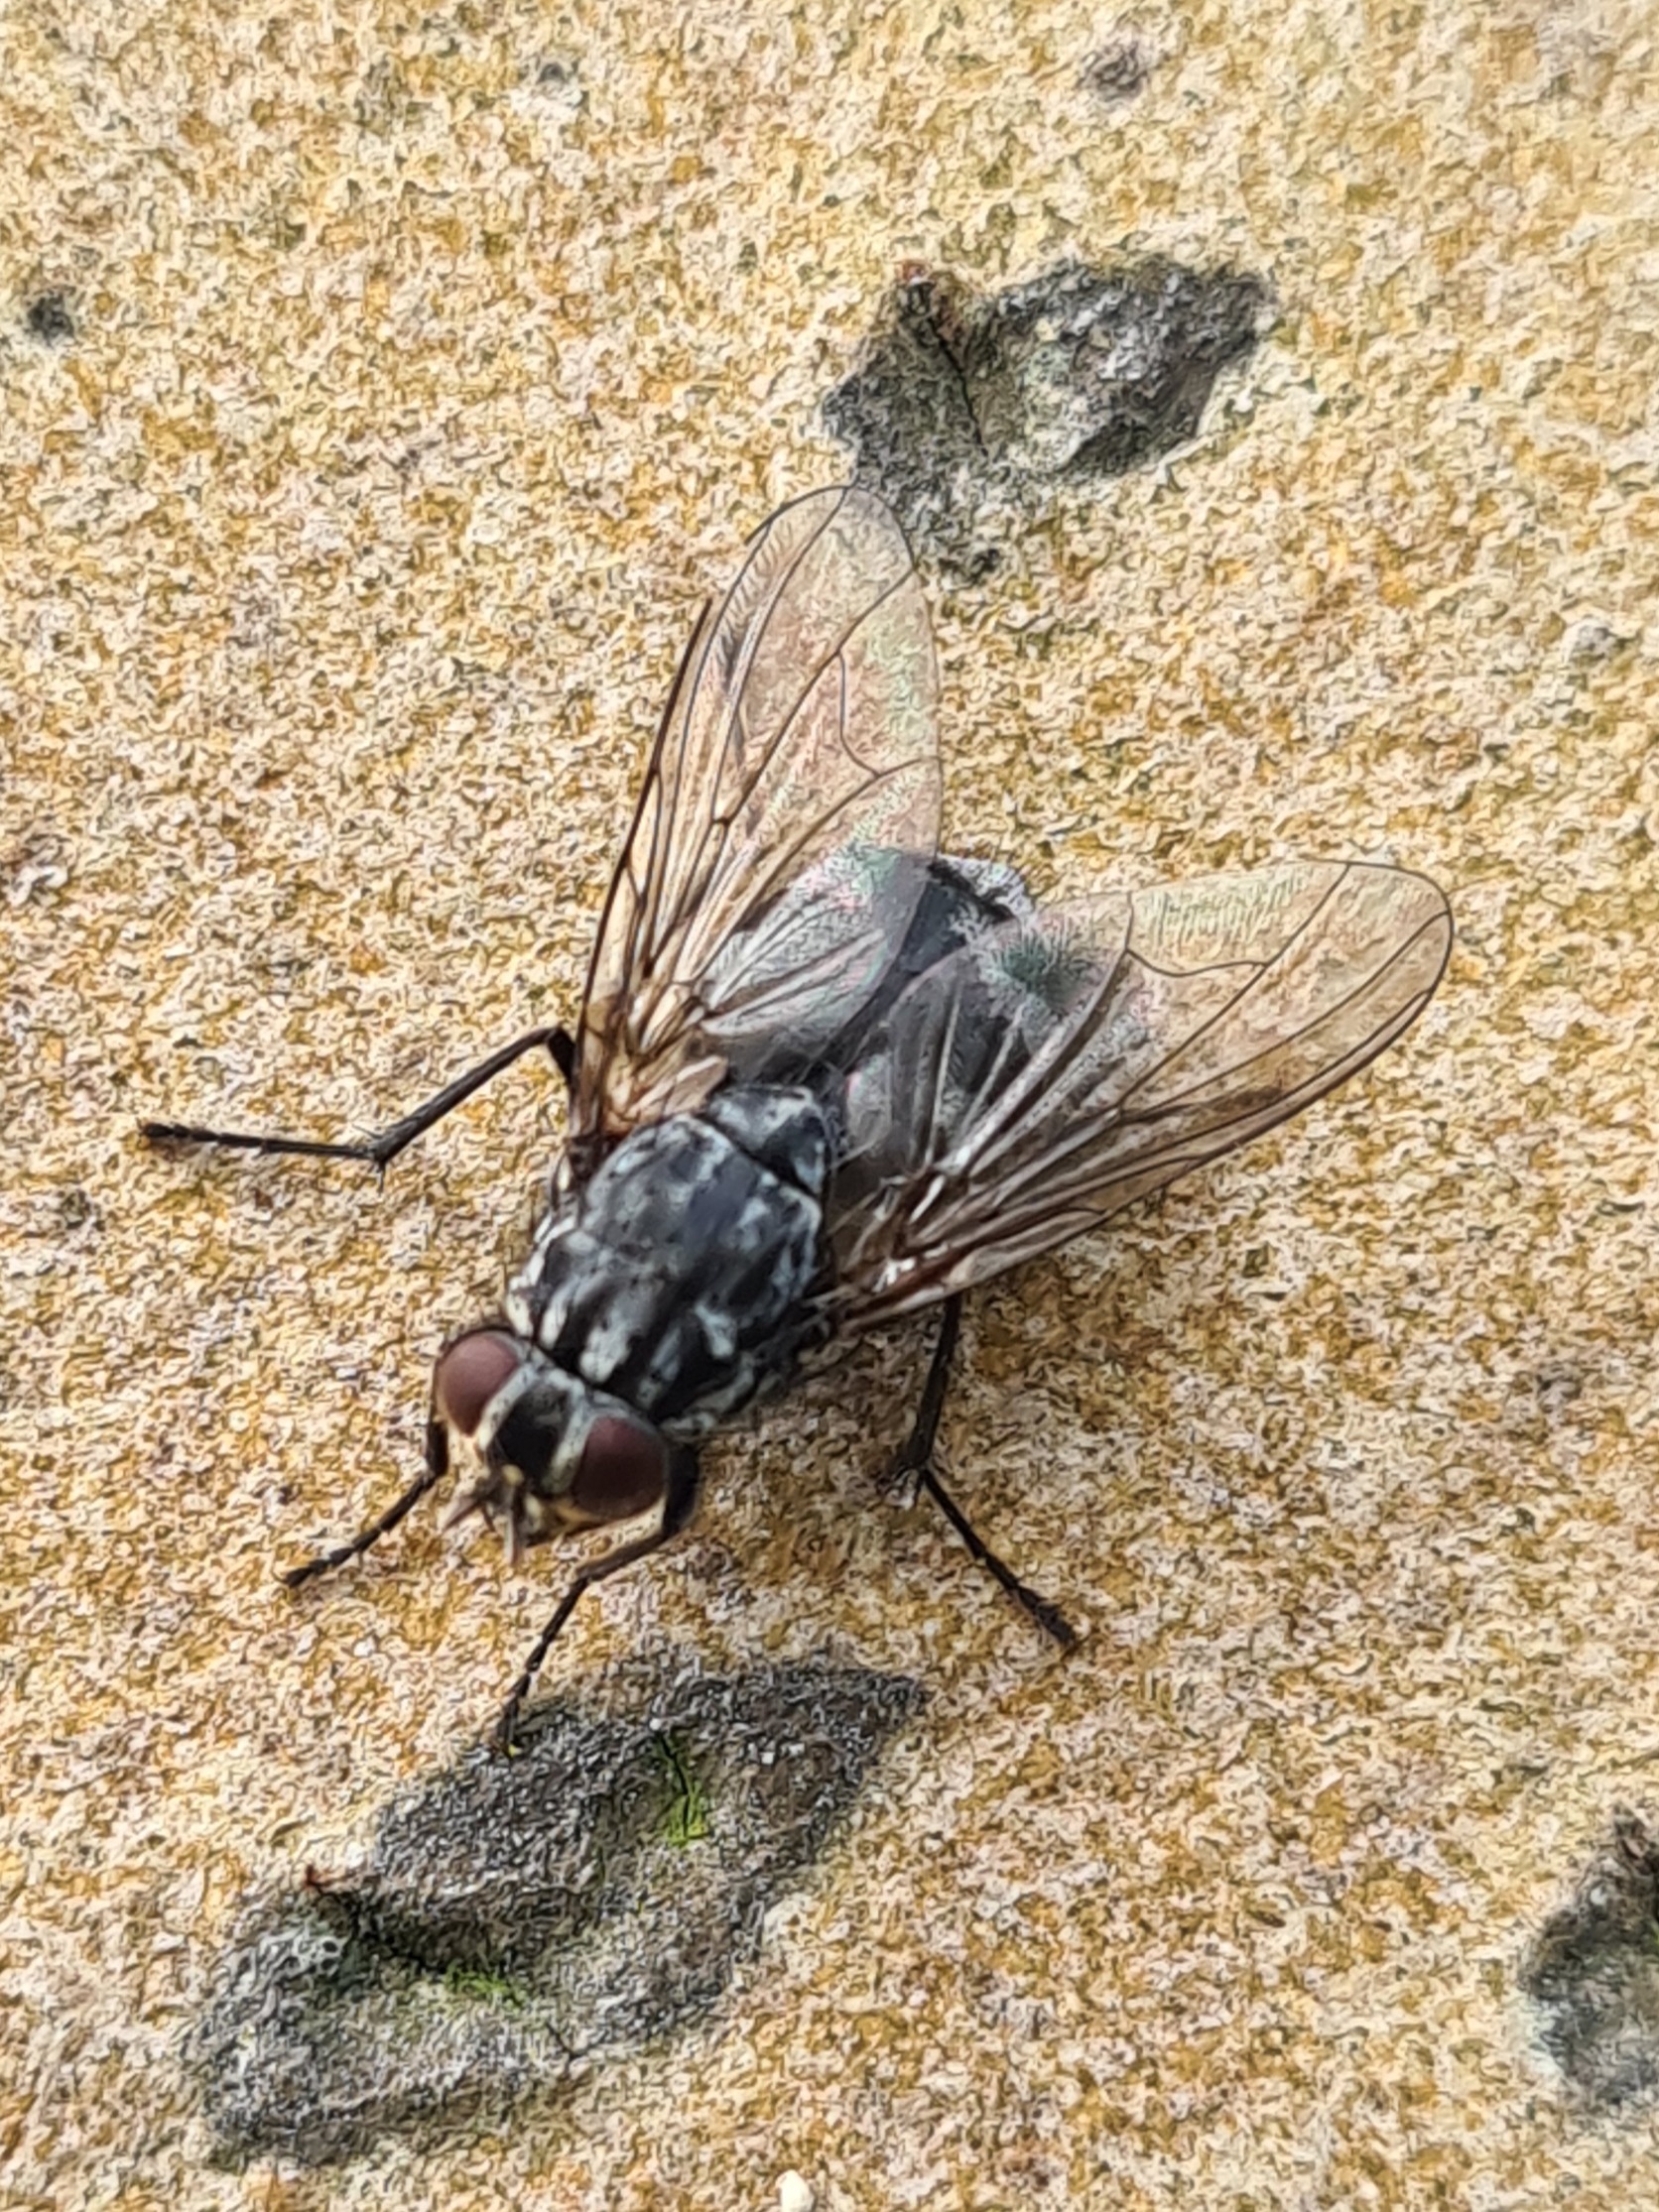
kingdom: Animalia
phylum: Arthropoda
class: Insecta
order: Diptera
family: Muscidae
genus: Polietes
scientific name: Polietes lardaria
